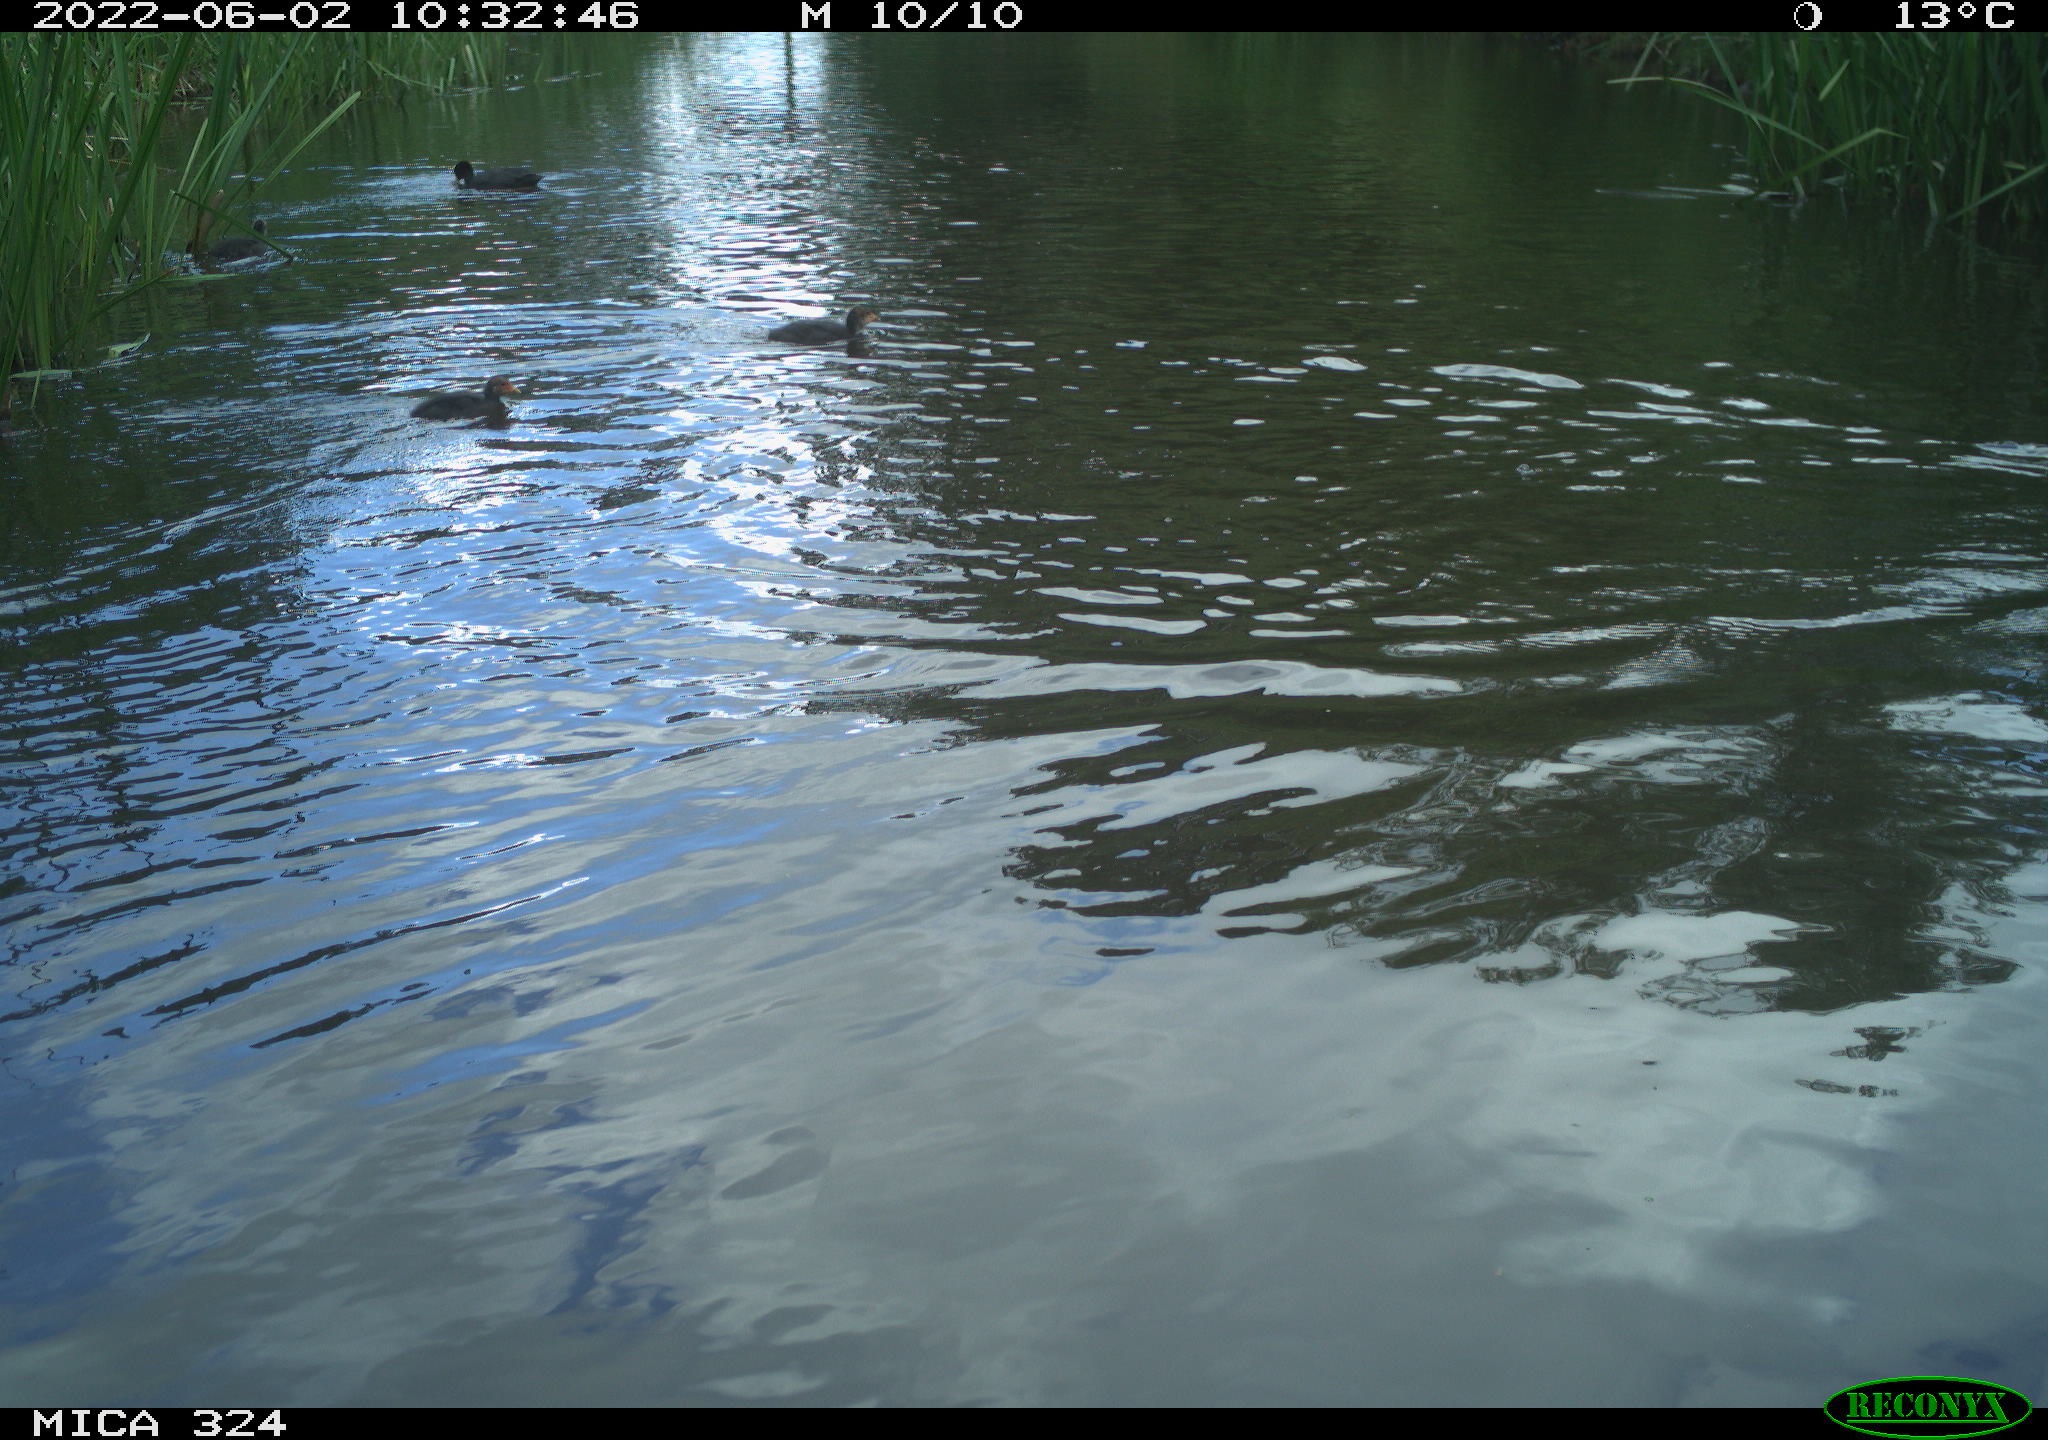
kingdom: Animalia
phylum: Chordata
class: Aves
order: Gruiformes
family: Rallidae
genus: Fulica
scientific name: Fulica atra
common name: Eurasian coot
